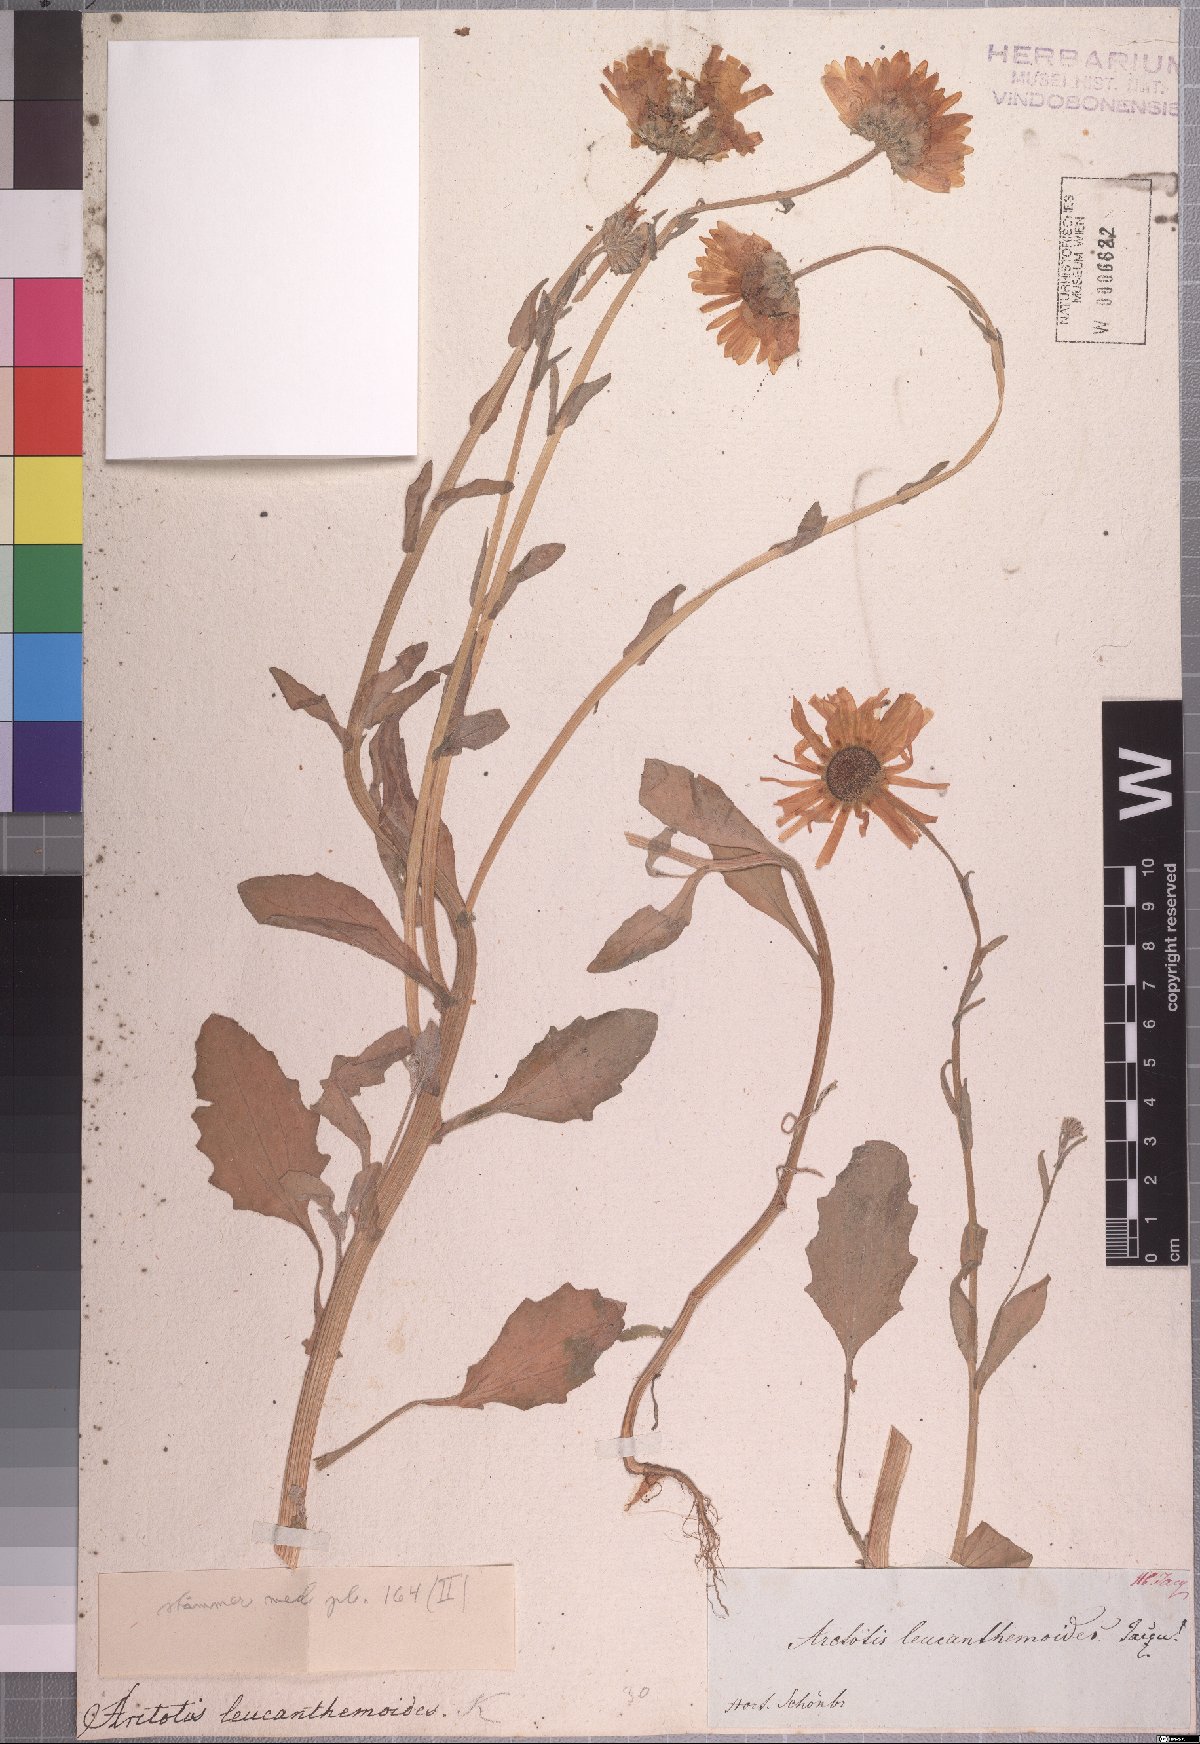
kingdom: Plantae
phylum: Tracheophyta
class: Magnoliopsida
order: Asterales
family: Asteraceae
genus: Arctotis
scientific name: Arctotis leucanthemoides
